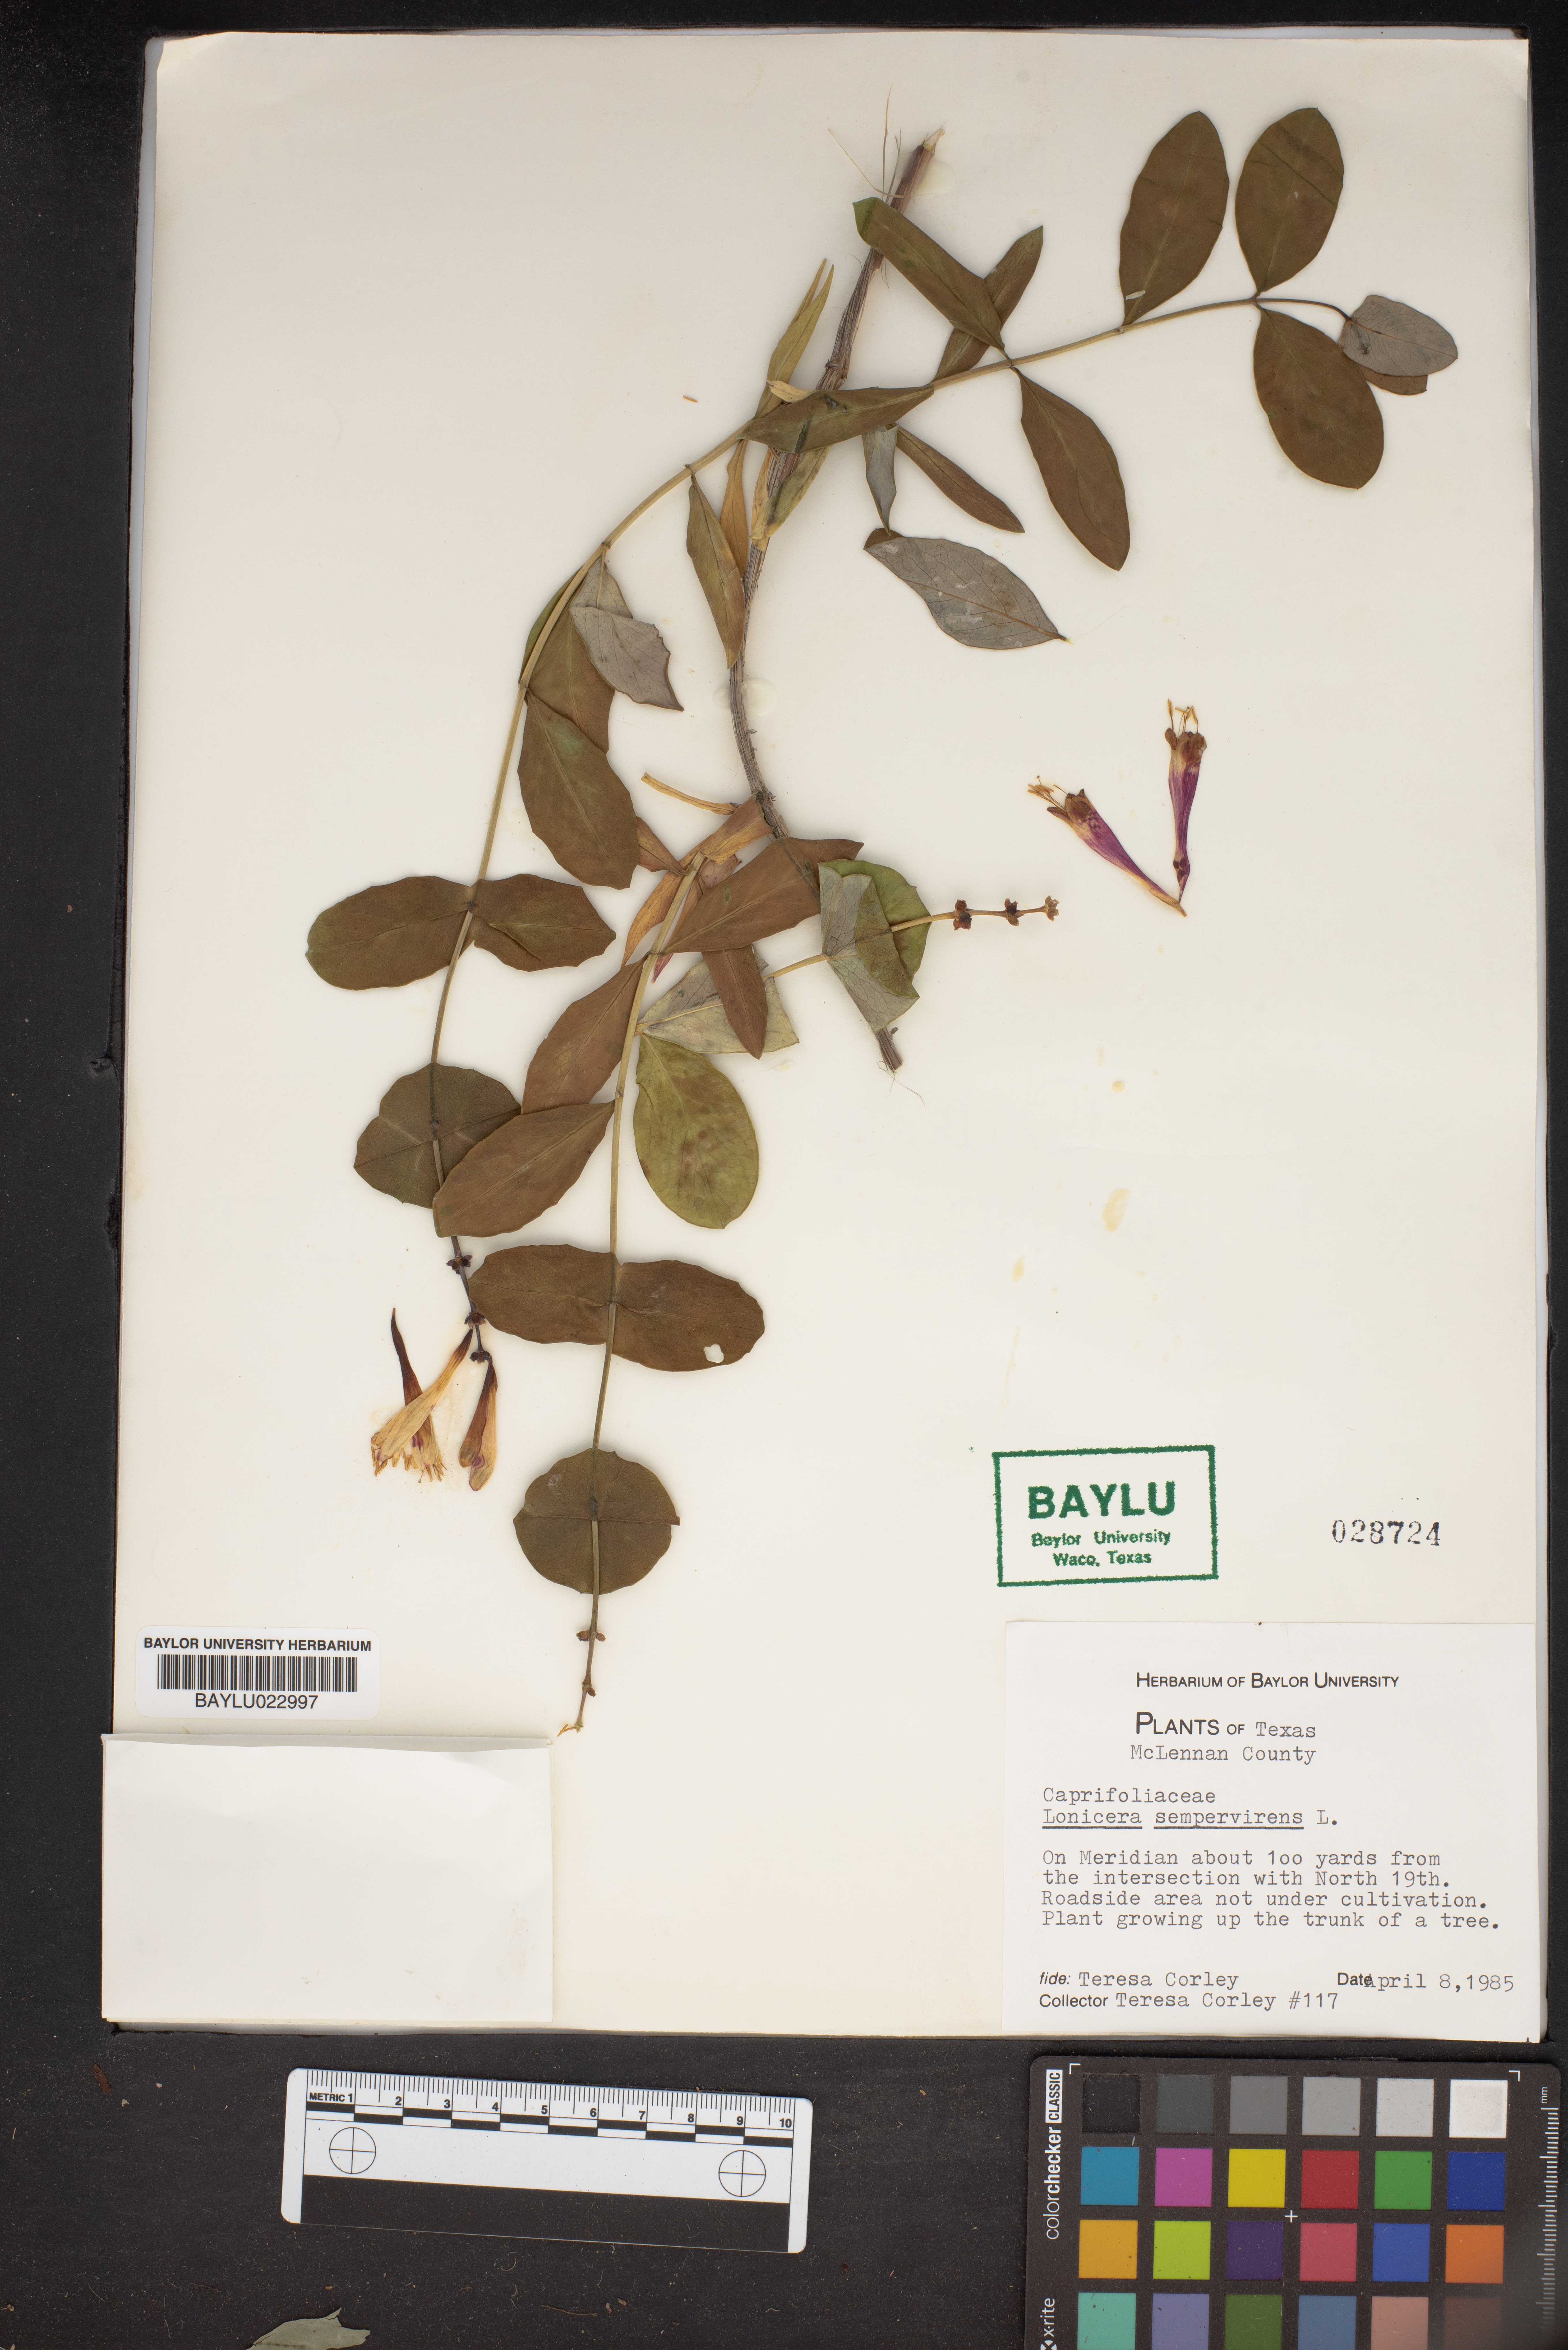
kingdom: Plantae
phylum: Tracheophyta
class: Magnoliopsida
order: Dipsacales
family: Caprifoliaceae
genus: Lonicera
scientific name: Lonicera sempervirens
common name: Coral honeysuckle
